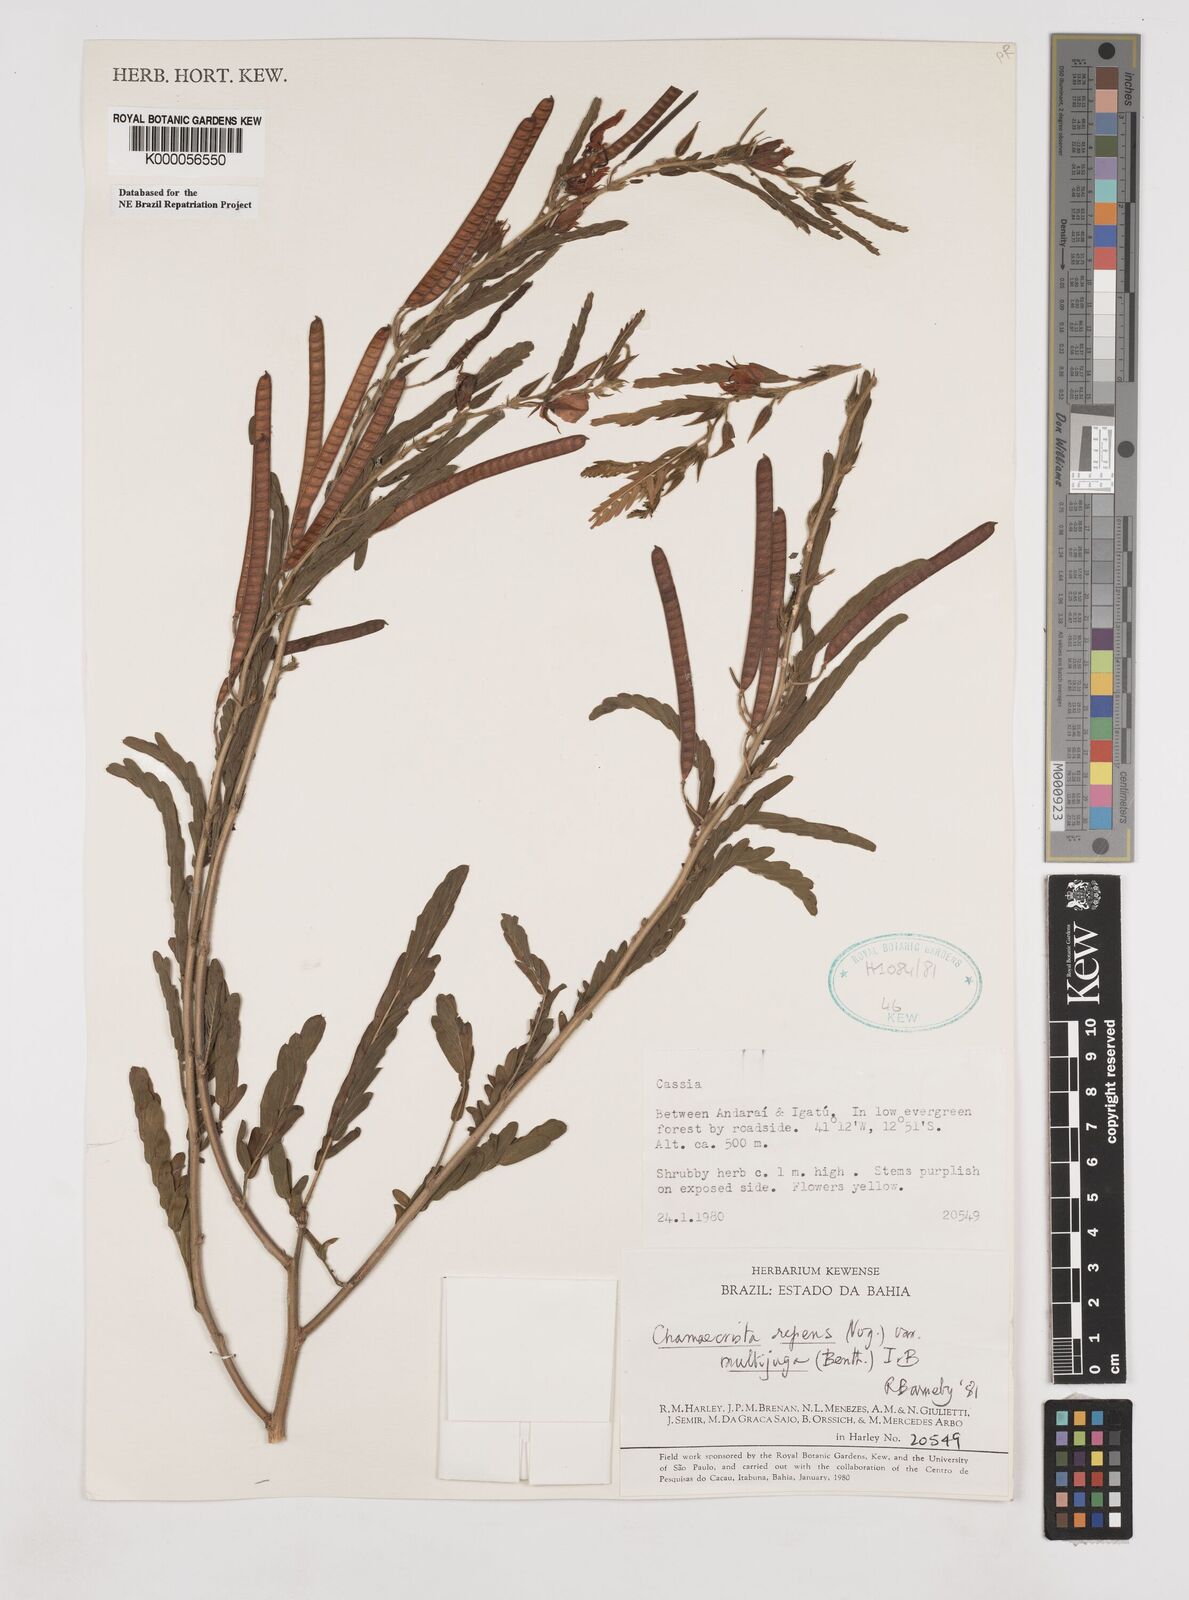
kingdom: Plantae
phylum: Tracheophyta
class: Magnoliopsida
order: Fabales
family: Fabaceae
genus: Chamaecrista
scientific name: Chamaecrista repens
